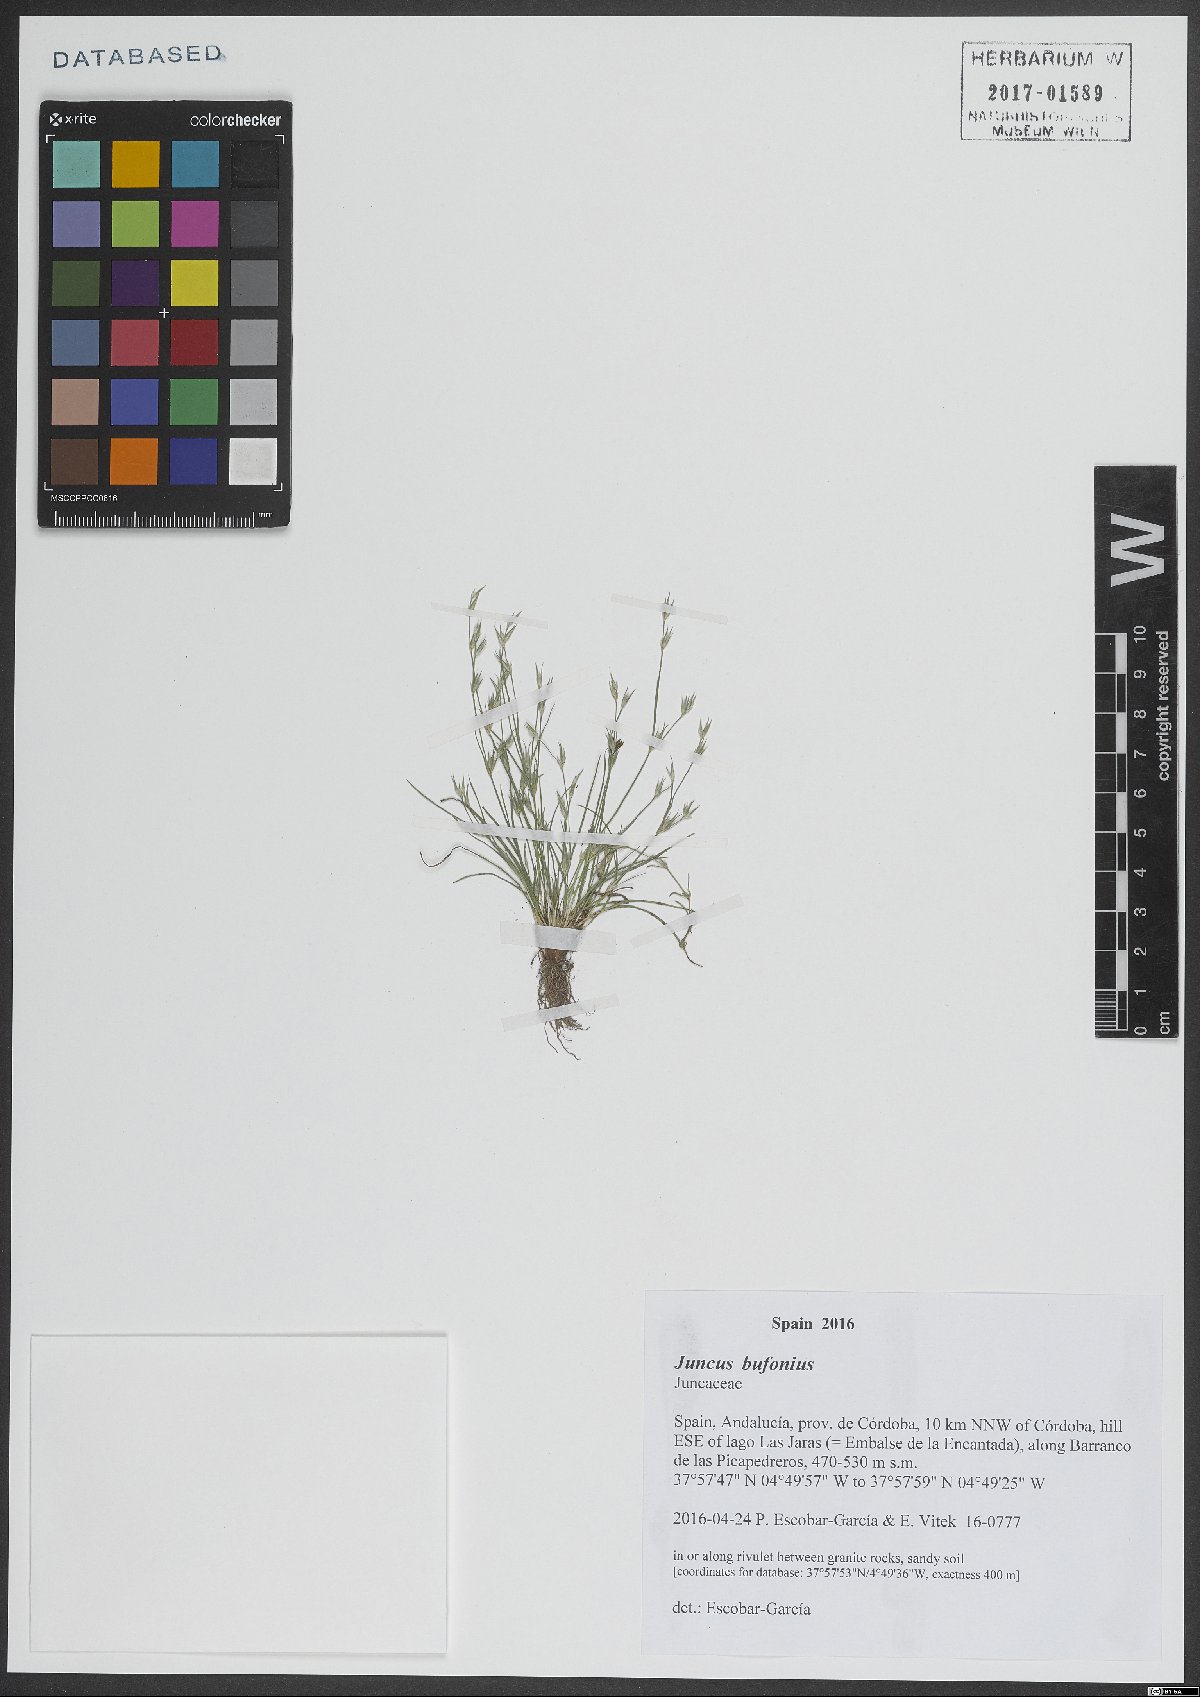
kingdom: Plantae
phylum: Tracheophyta
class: Liliopsida
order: Poales
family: Juncaceae
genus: Juncus
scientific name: Juncus bufonius
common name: Toad rush
